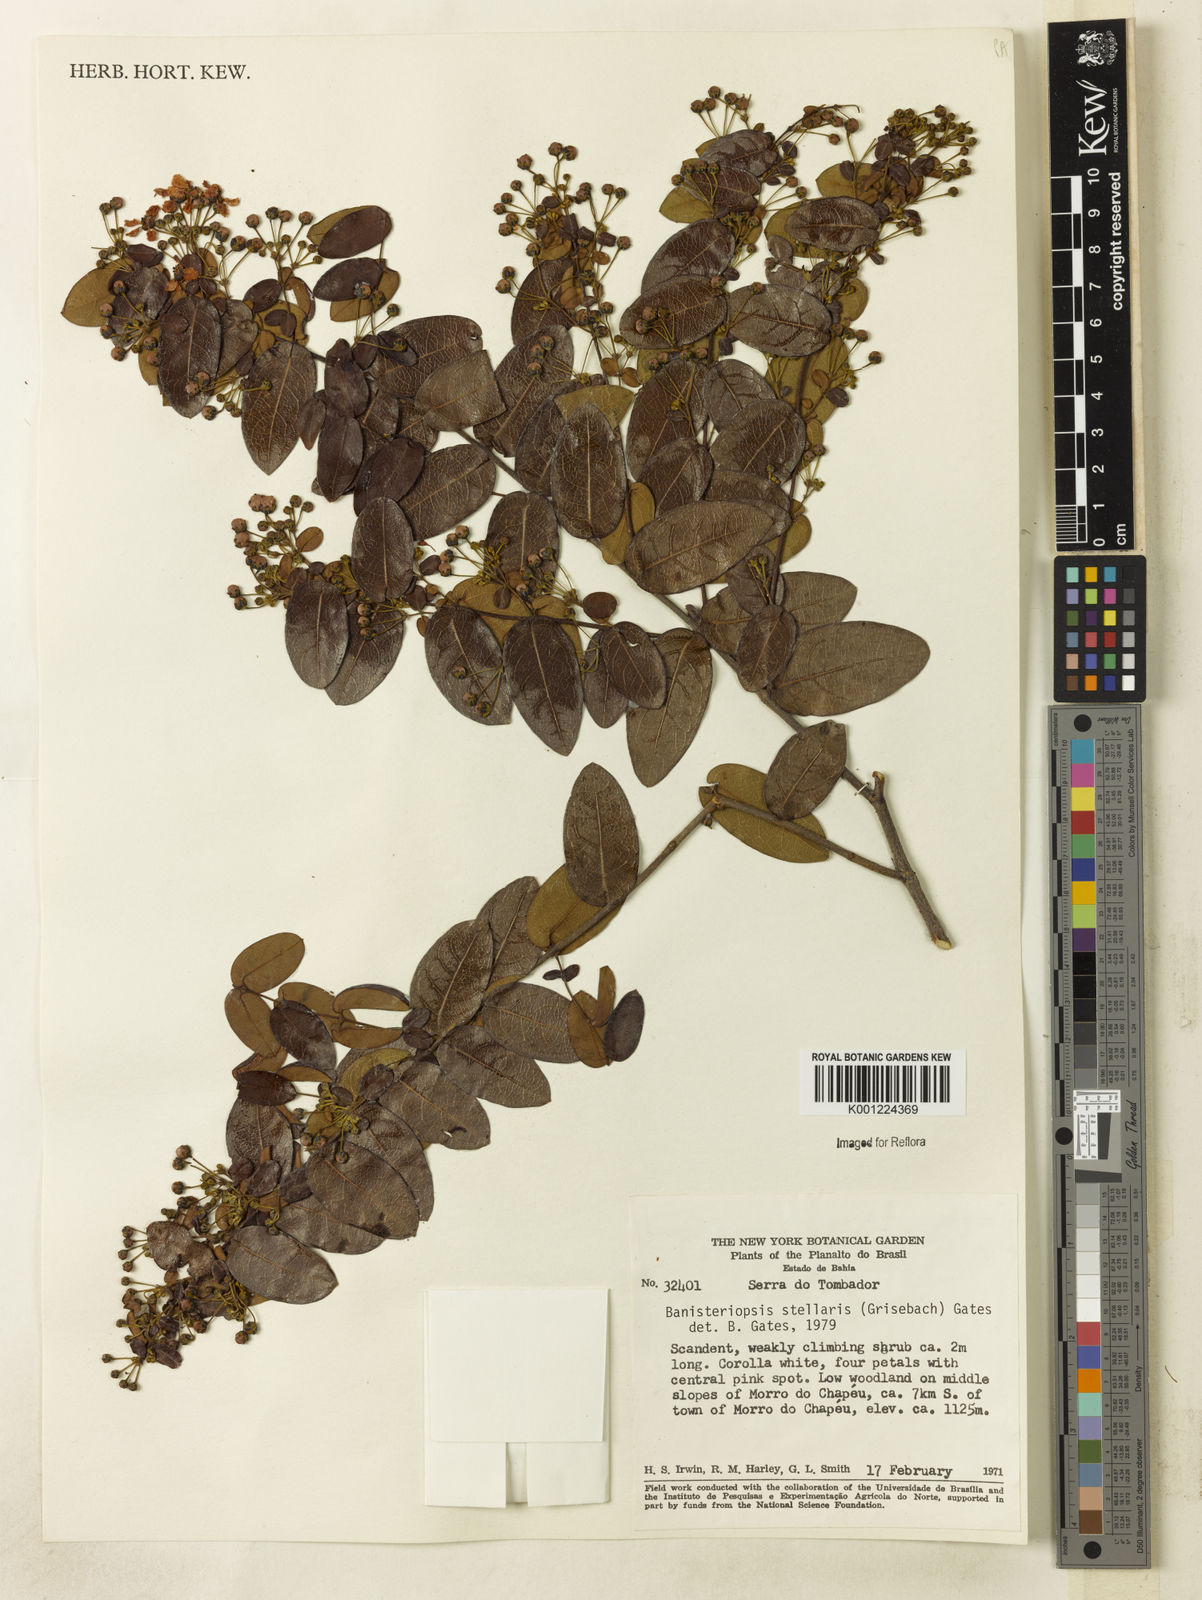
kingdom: Plantae
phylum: Tracheophyta
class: Magnoliopsida
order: Malpighiales
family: Malpighiaceae
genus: Banisteriopsis
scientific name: Banisteriopsis stellaris
